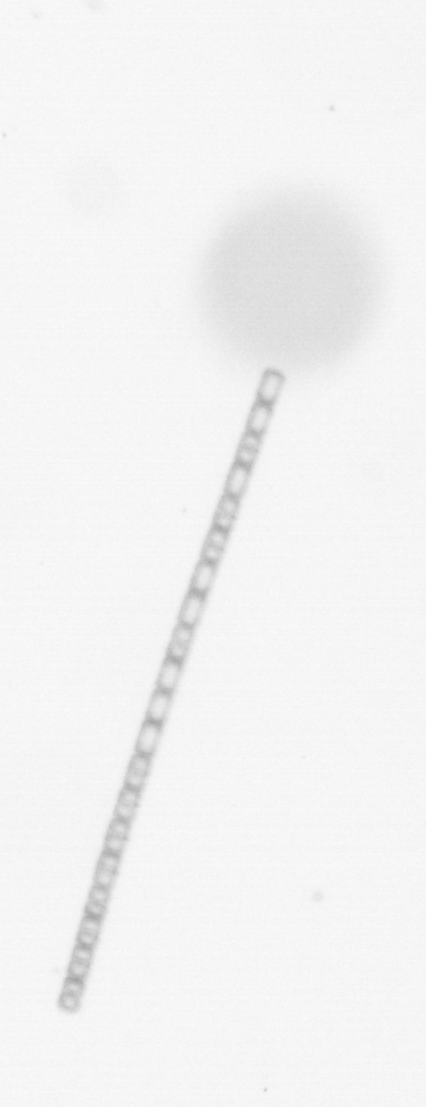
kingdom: Chromista
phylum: Ochrophyta
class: Bacillariophyceae
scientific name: Bacillariophyceae
